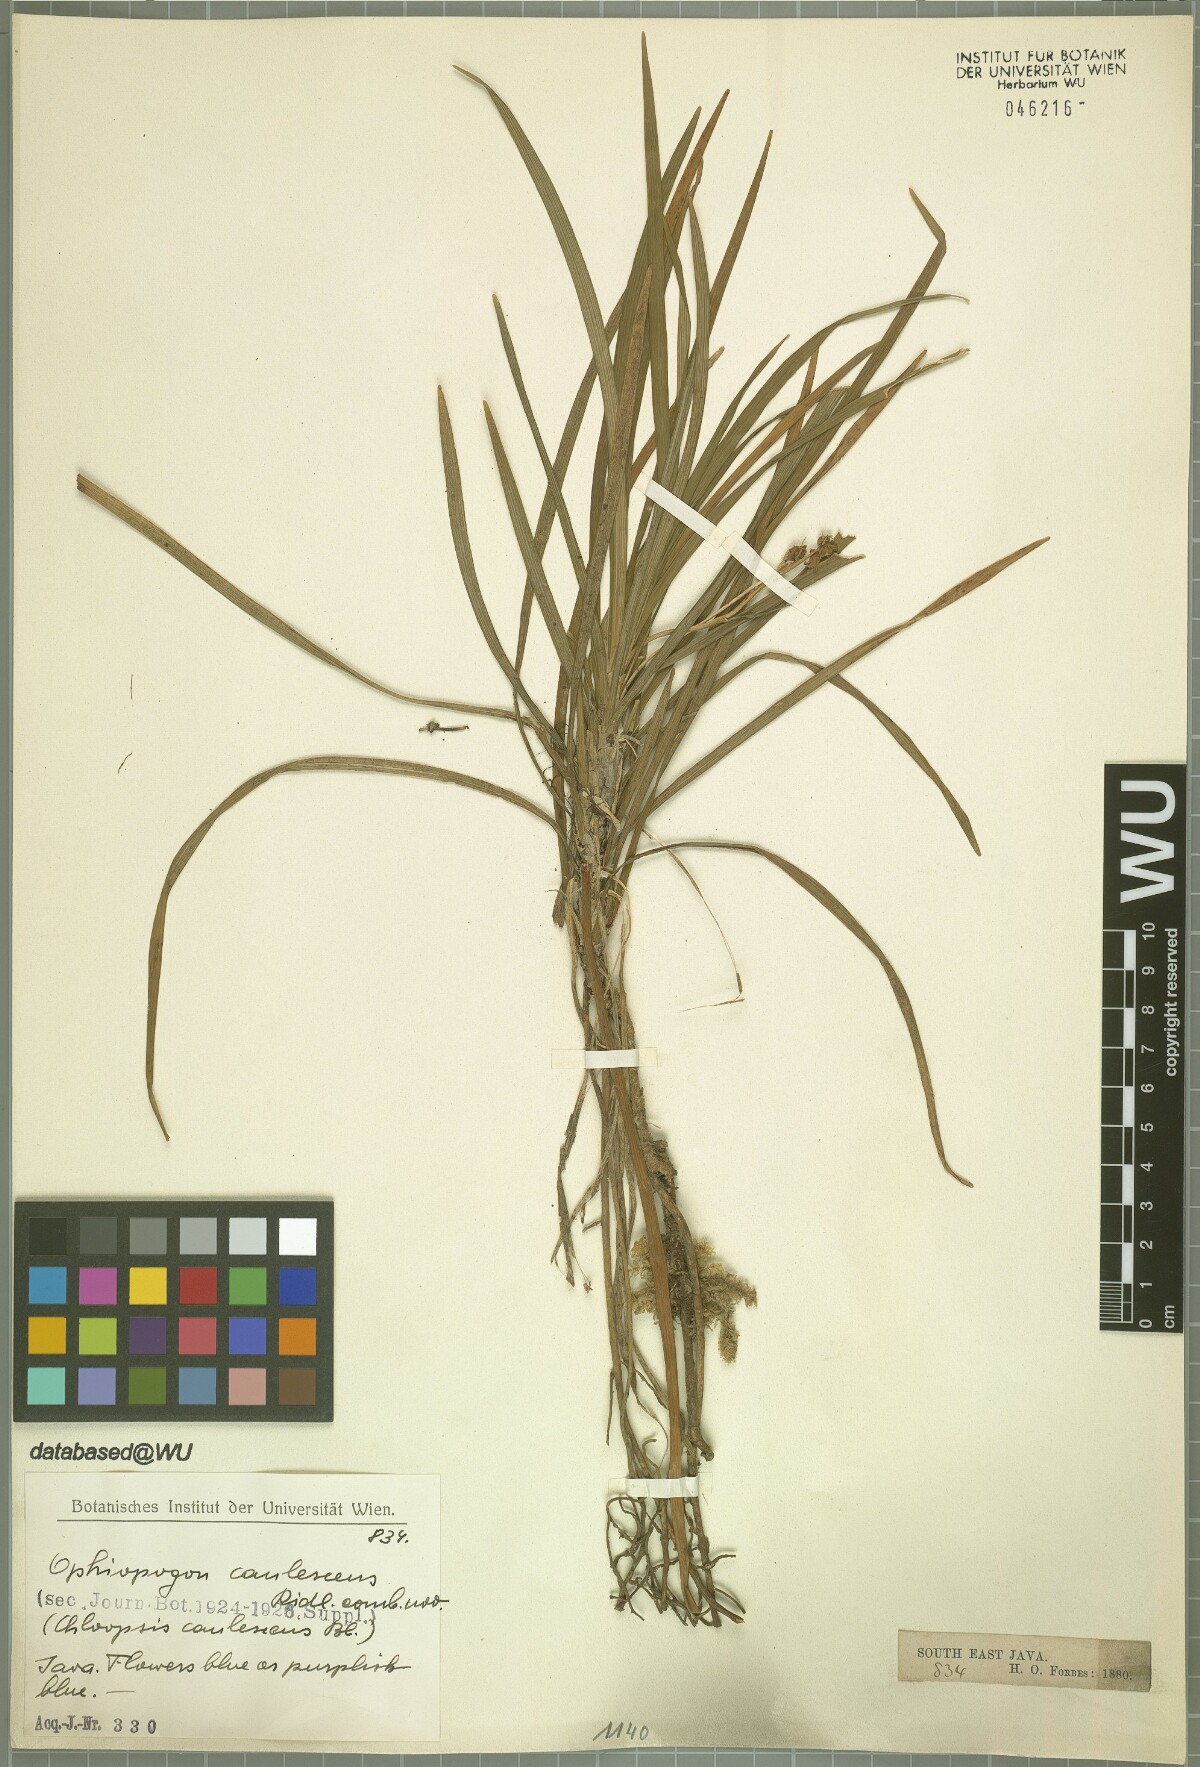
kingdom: Plantae
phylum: Tracheophyta
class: Liliopsida
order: Asparagales
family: Asparagaceae
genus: Ophiopogon
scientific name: Ophiopogon caulescens
